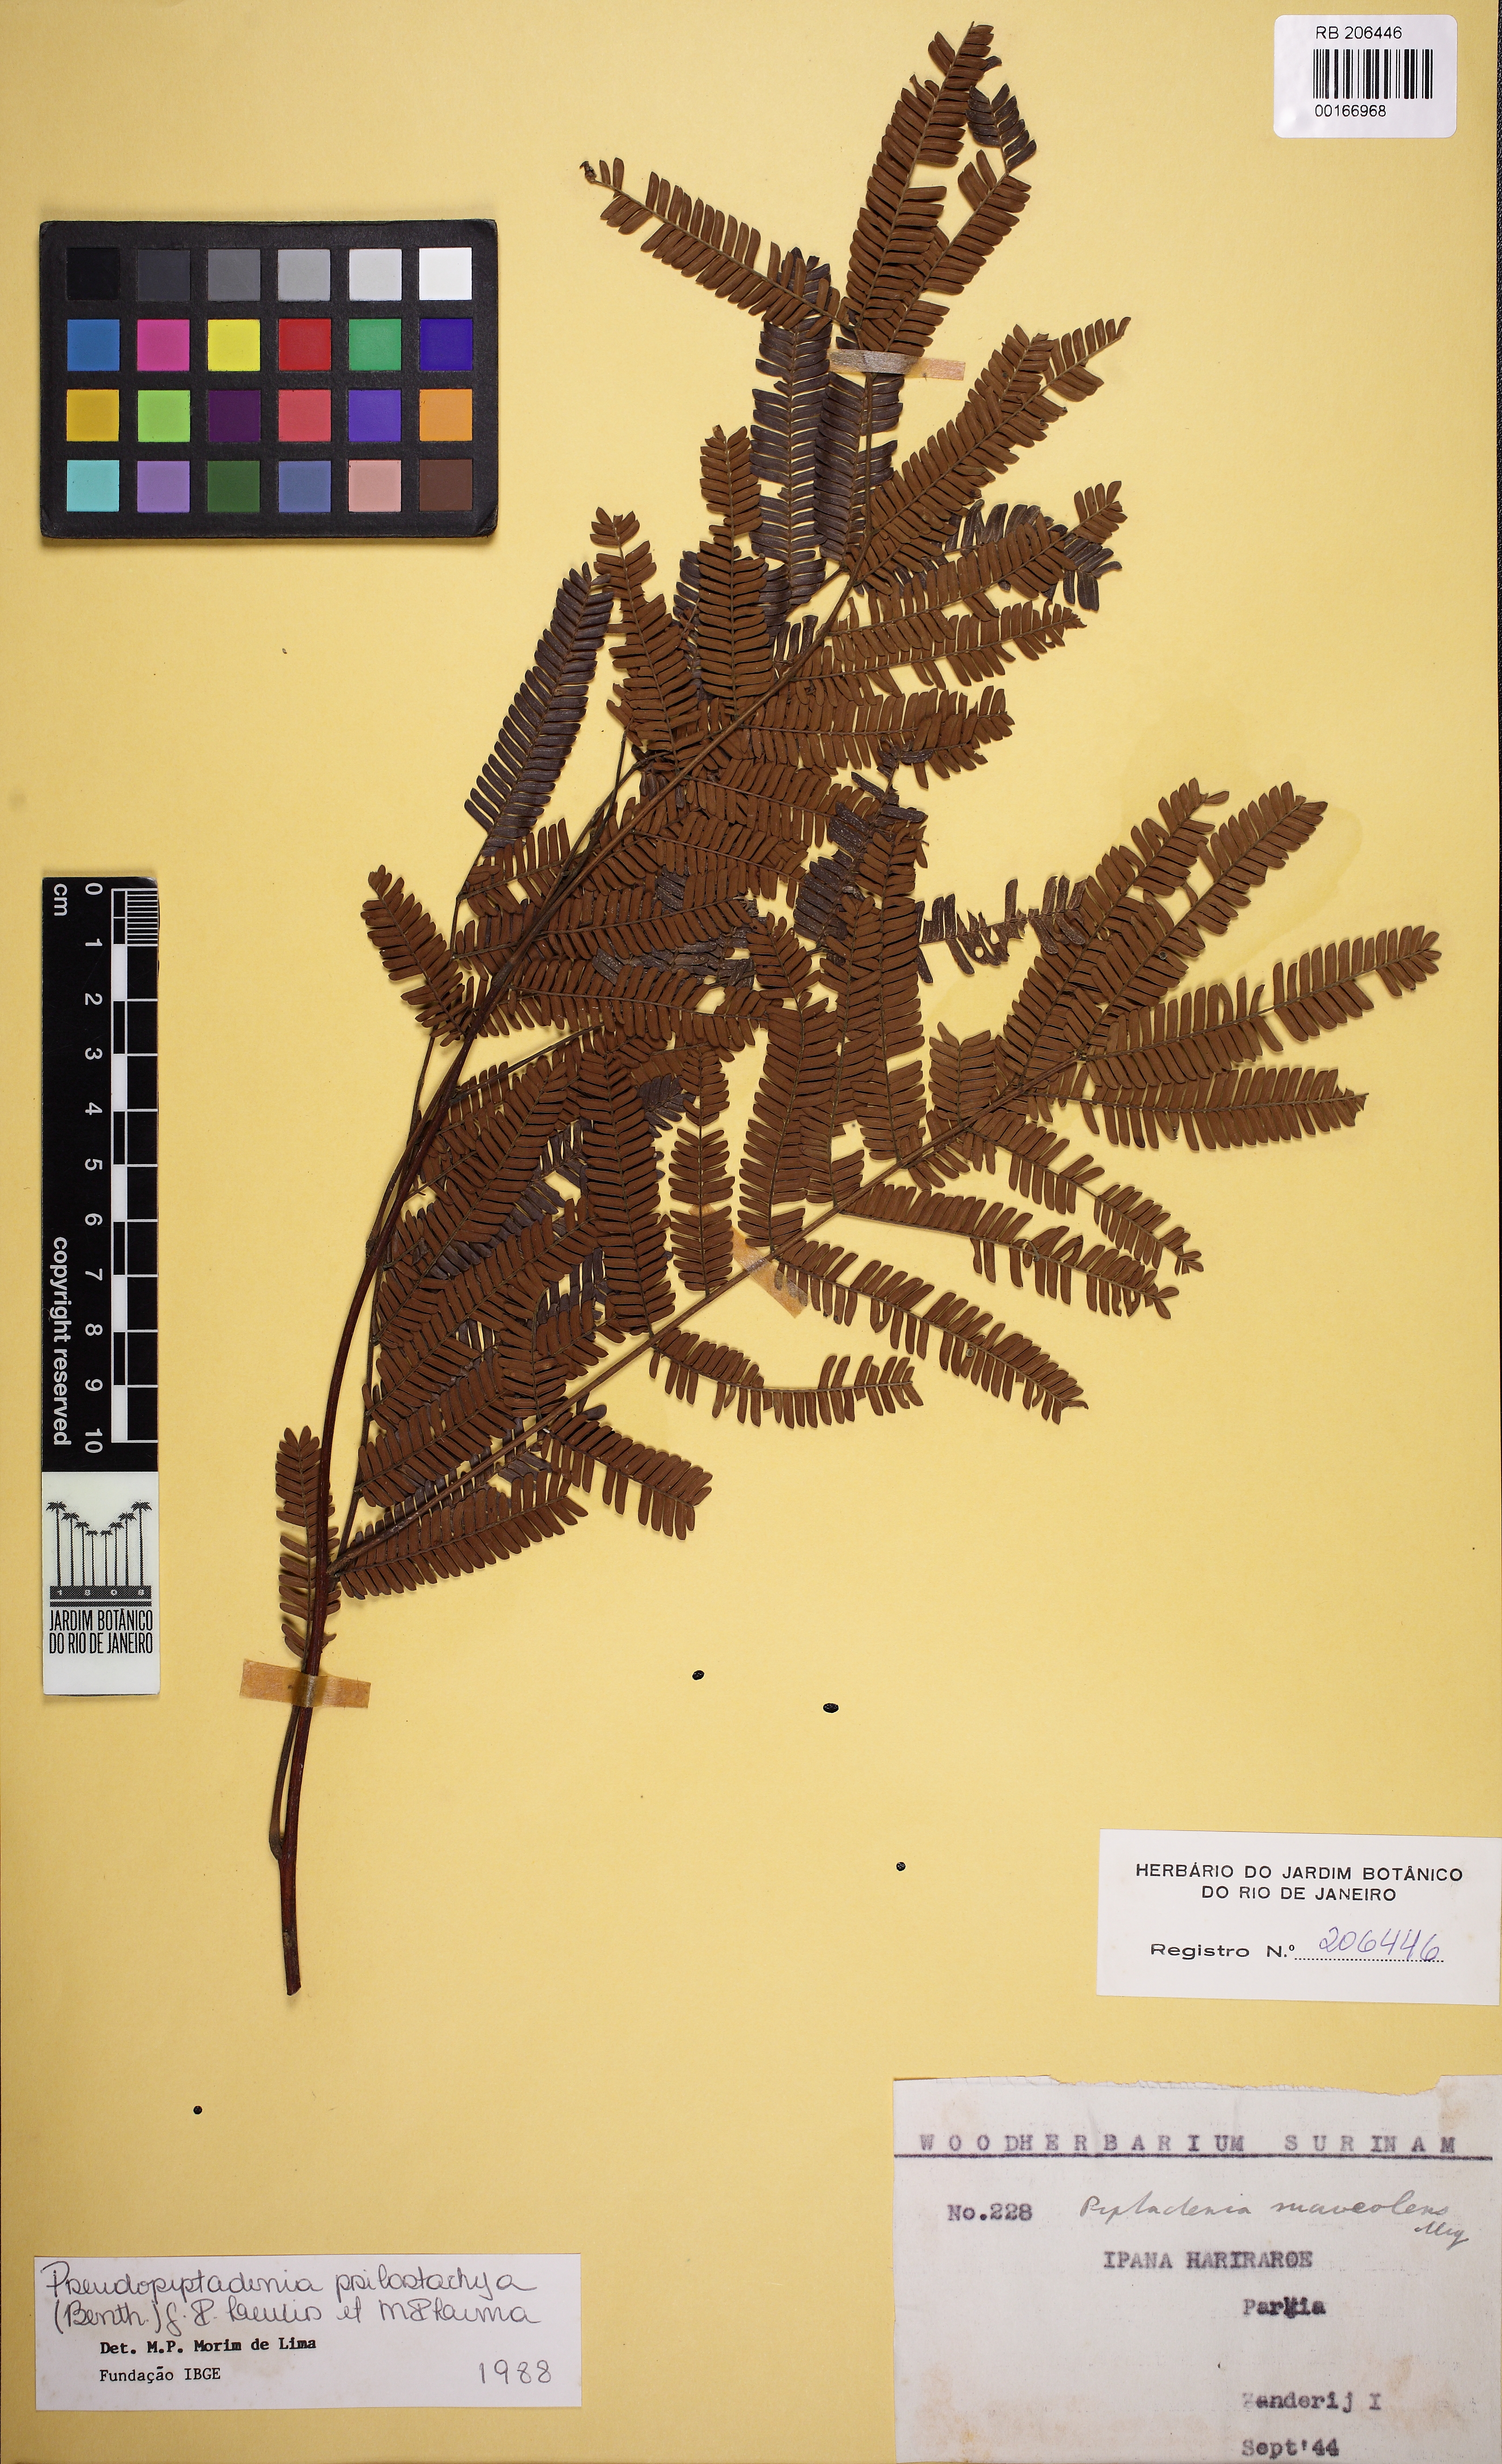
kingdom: Plantae
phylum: Tracheophyta
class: Magnoliopsida
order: Fabales
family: Fabaceae
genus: Pseudopiptadenia
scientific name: Pseudopiptadenia leptostachya
